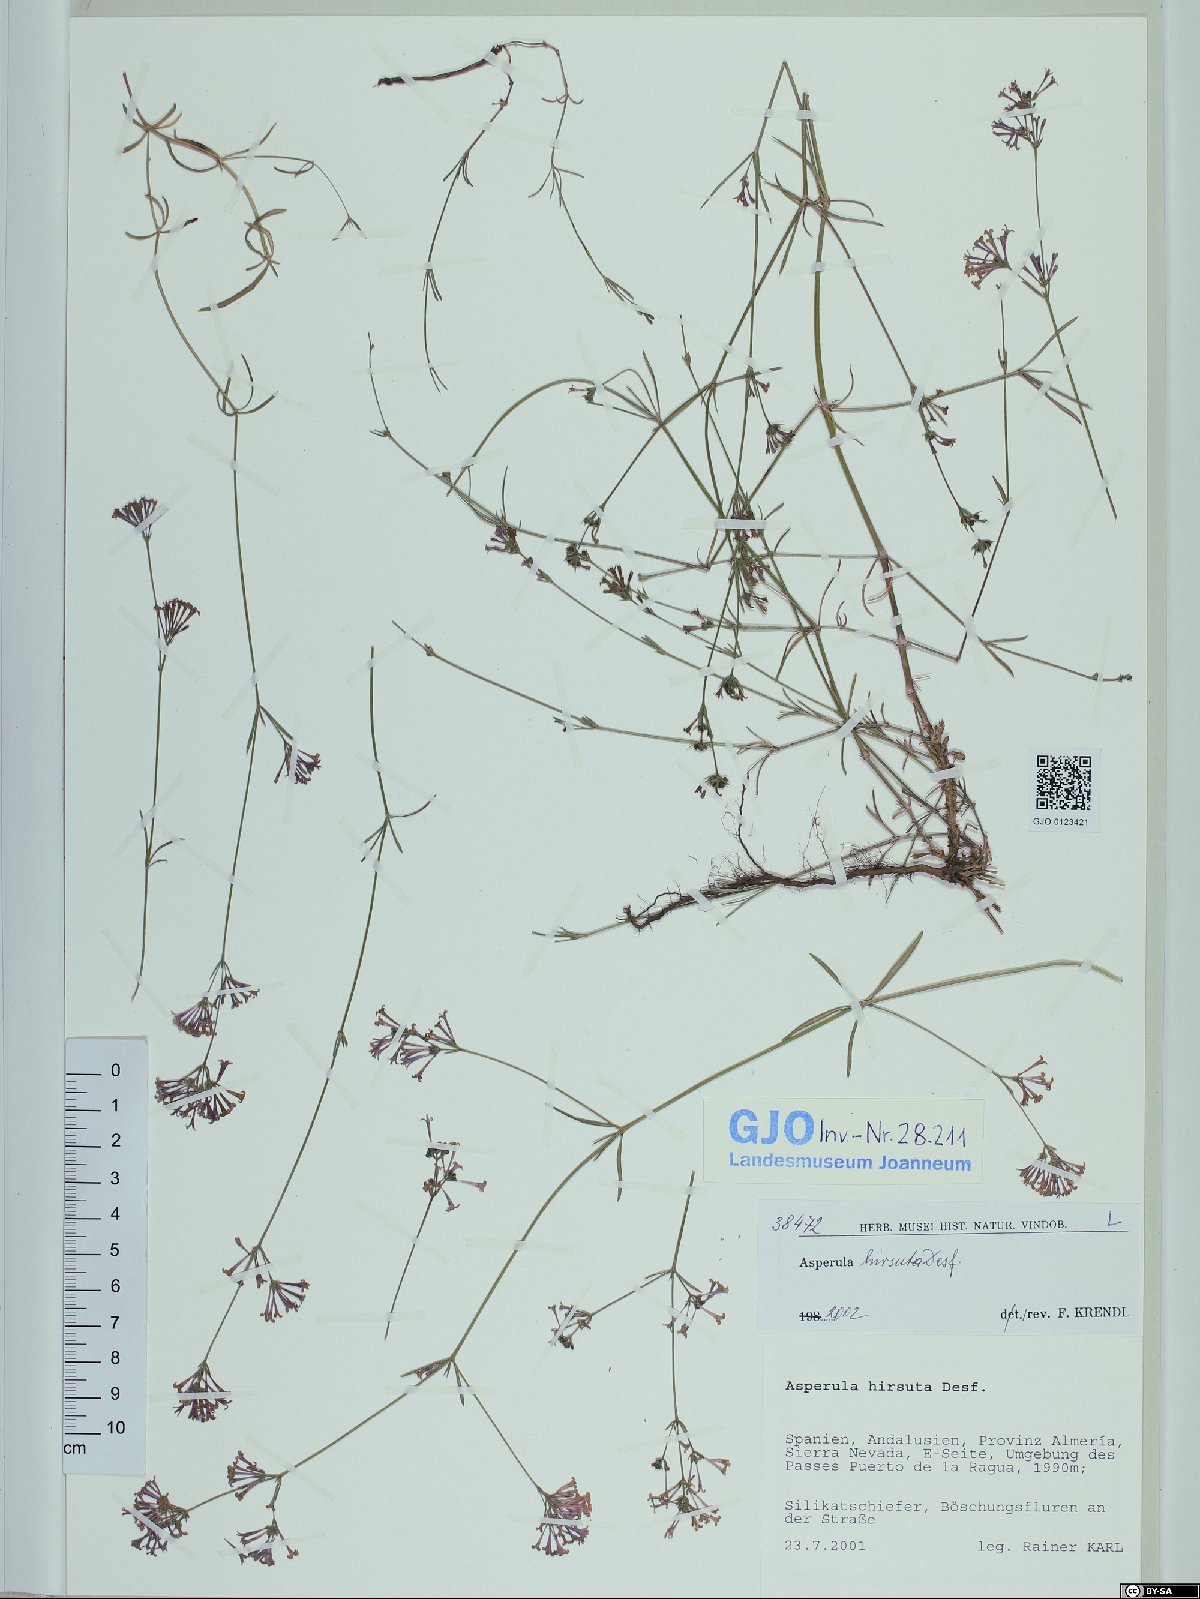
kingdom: Plantae
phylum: Tracheophyta
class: Magnoliopsida
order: Gentianales
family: Rubiaceae
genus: Hexaphylla
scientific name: Hexaphylla hirsuta
